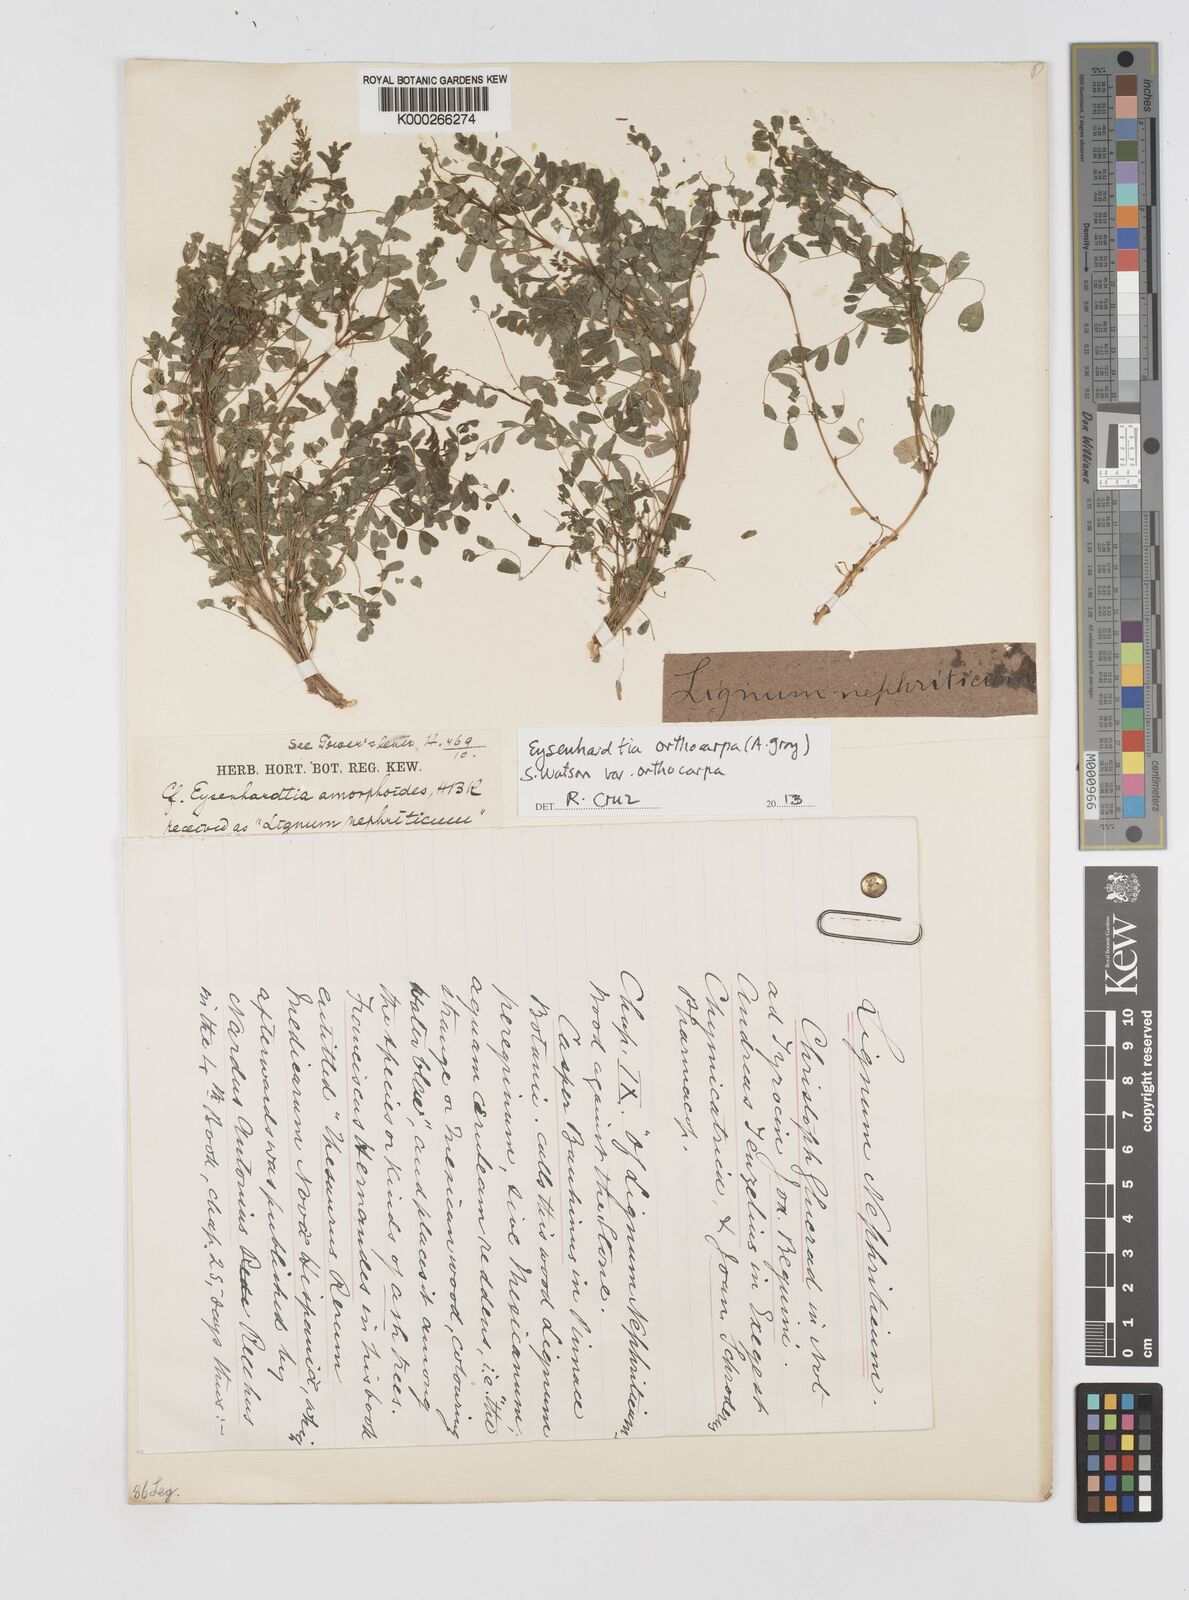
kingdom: Plantae
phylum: Tracheophyta
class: Magnoliopsida
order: Fabales
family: Fabaceae
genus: Eysenhardtia
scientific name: Eysenhardtia polystachya
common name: Kidneywood
